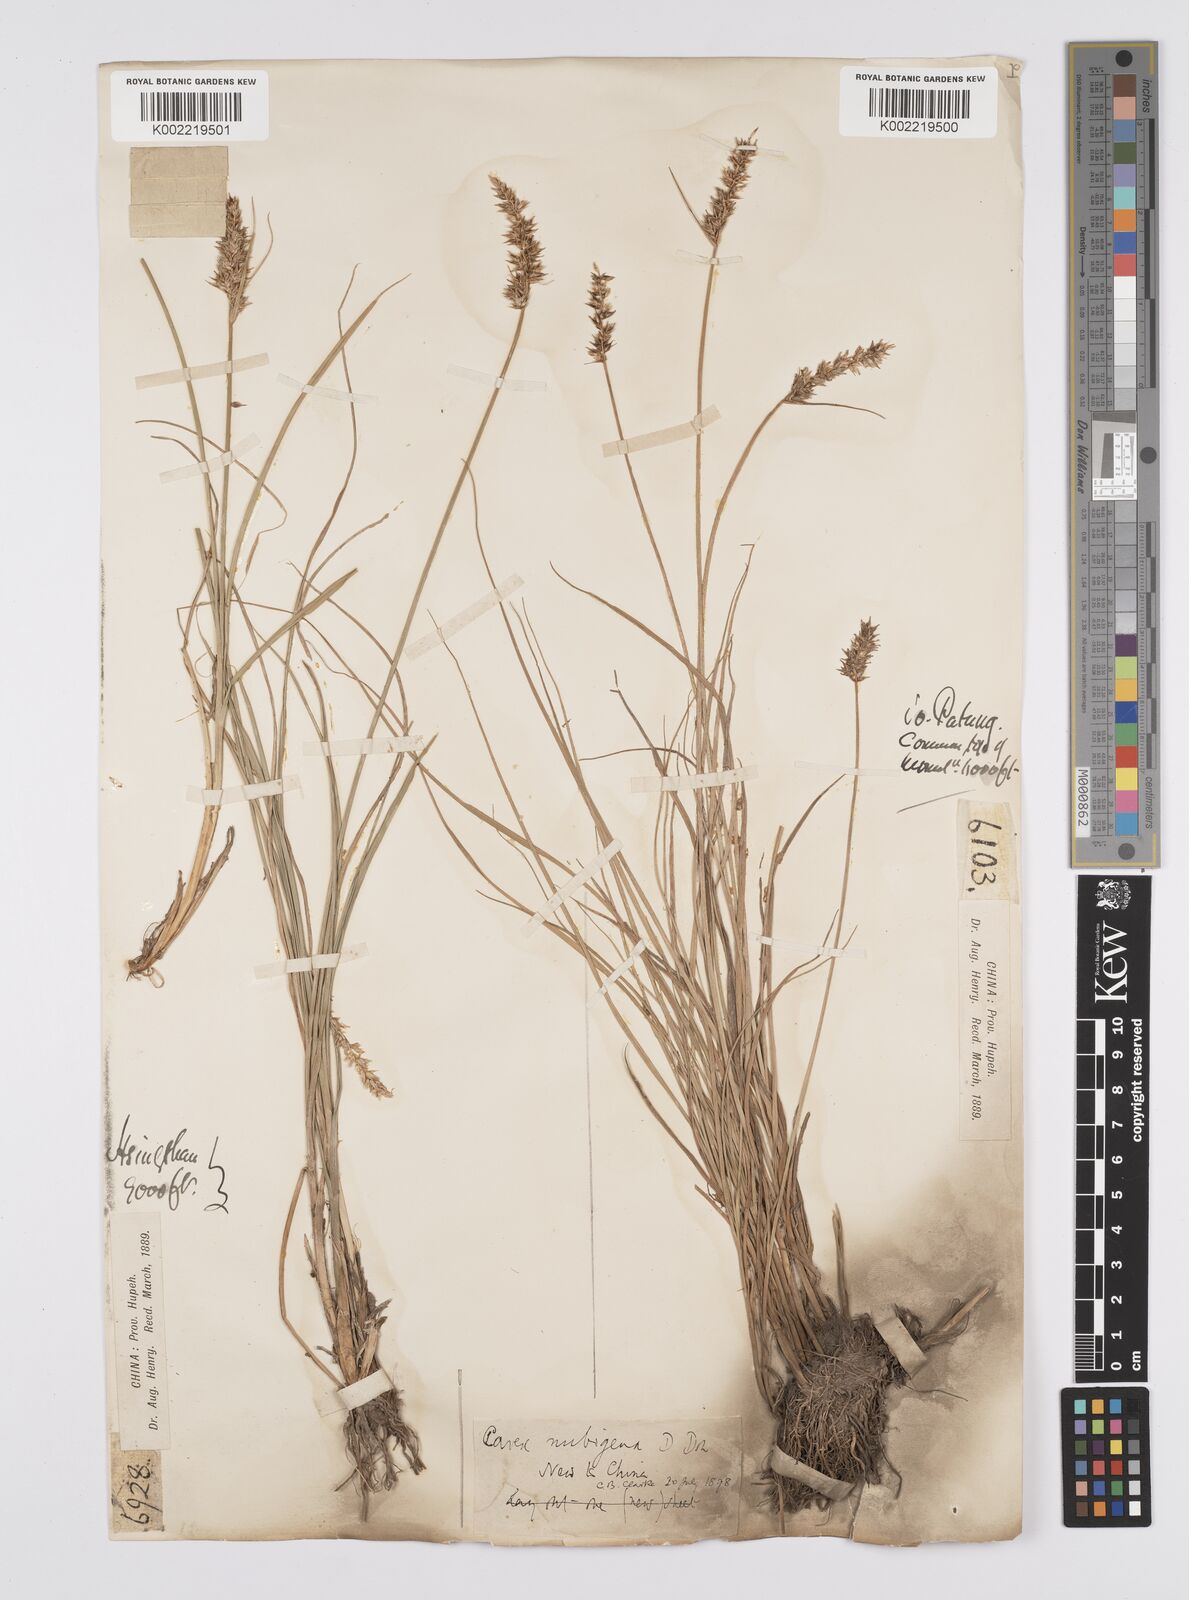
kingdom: Plantae
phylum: Tracheophyta
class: Liliopsida
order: Poales
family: Cyperaceae
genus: Carex
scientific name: Carex nubigena
